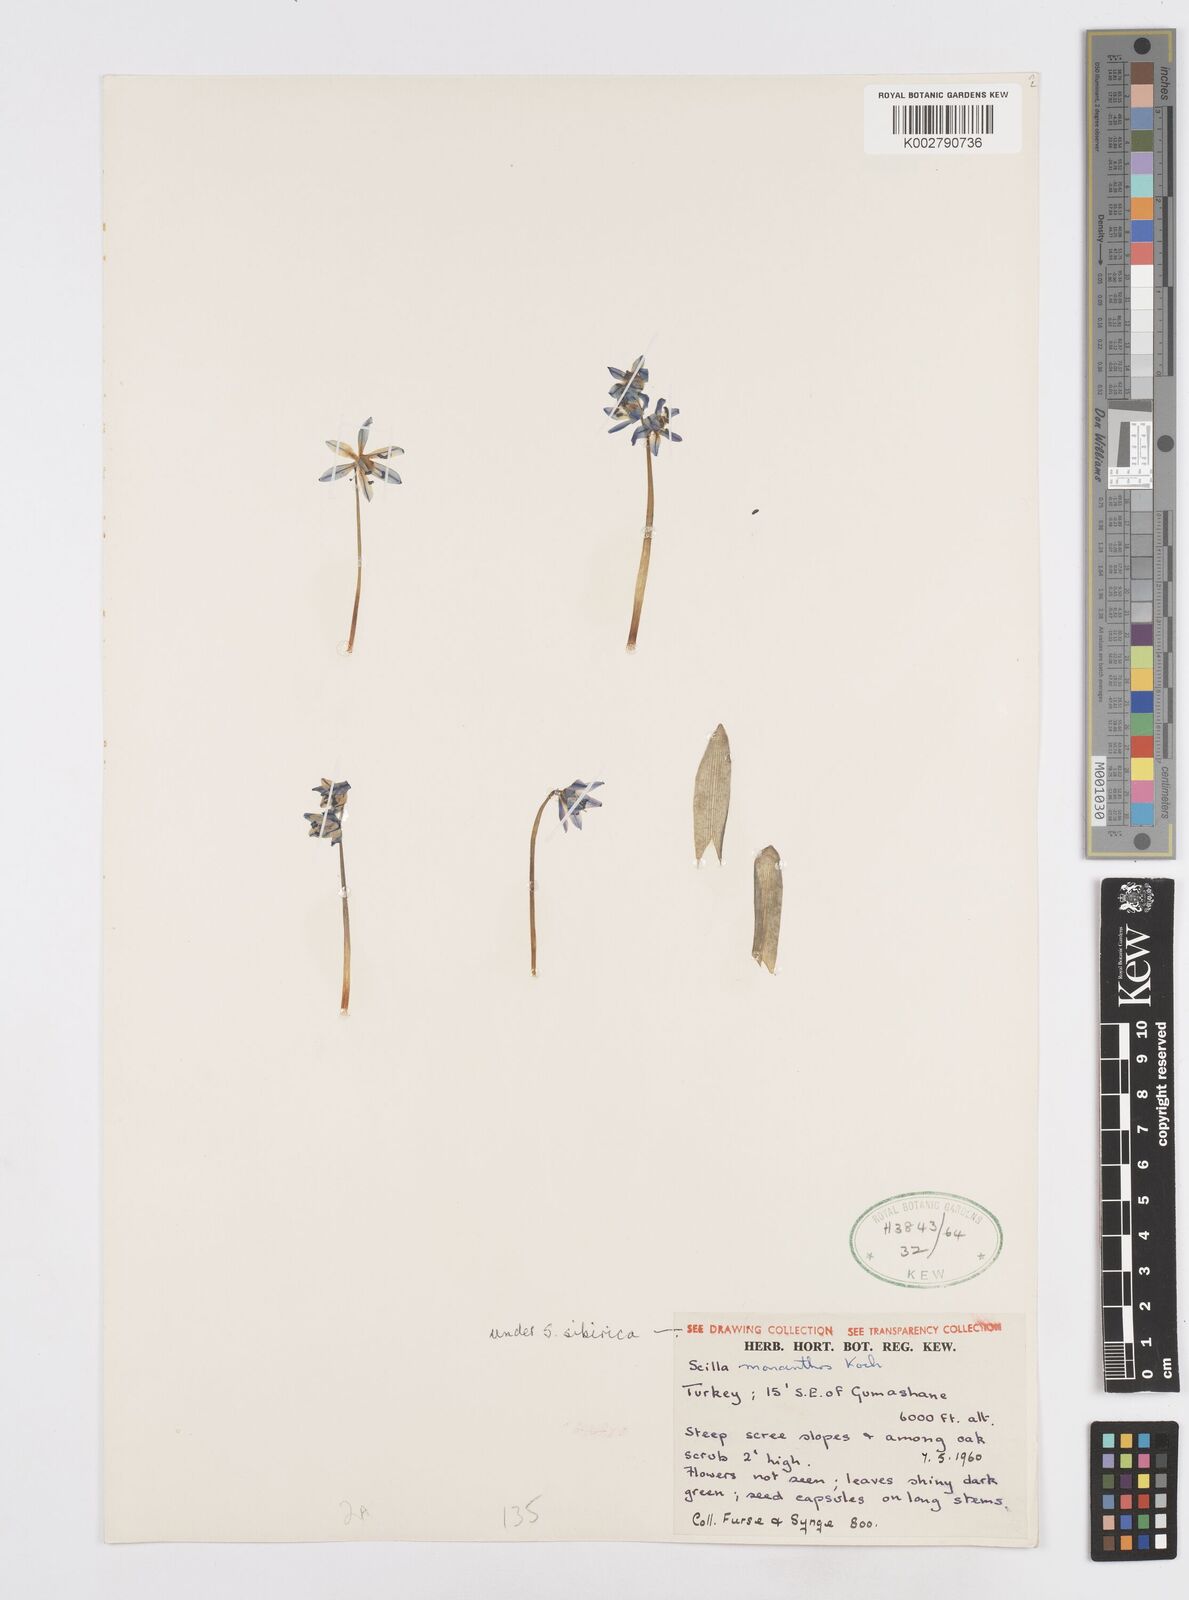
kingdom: Plantae
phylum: Tracheophyta
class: Liliopsida
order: Asparagales
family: Asparagaceae
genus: Scilla
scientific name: Scilla monanthos
